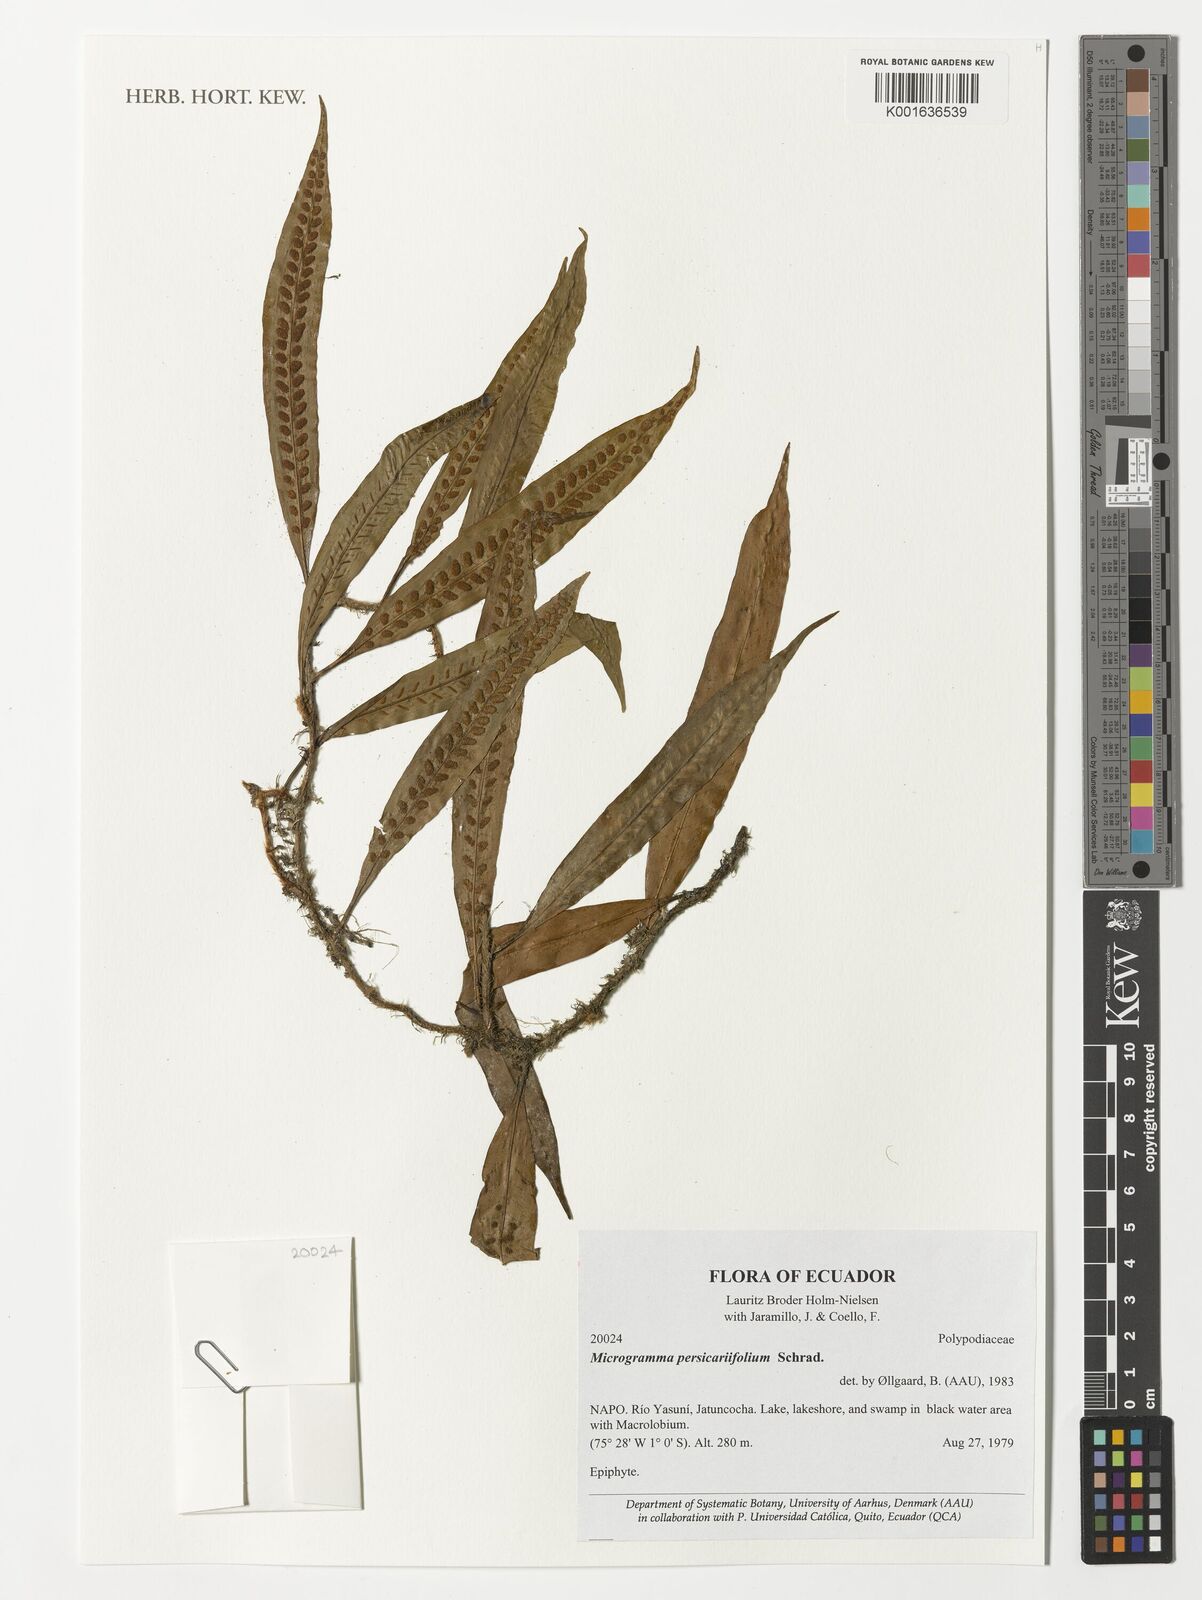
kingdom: Plantae
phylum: Tracheophyta
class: Polypodiopsida
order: Polypodiales
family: Polypodiaceae
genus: Microgramma
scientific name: Microgramma
